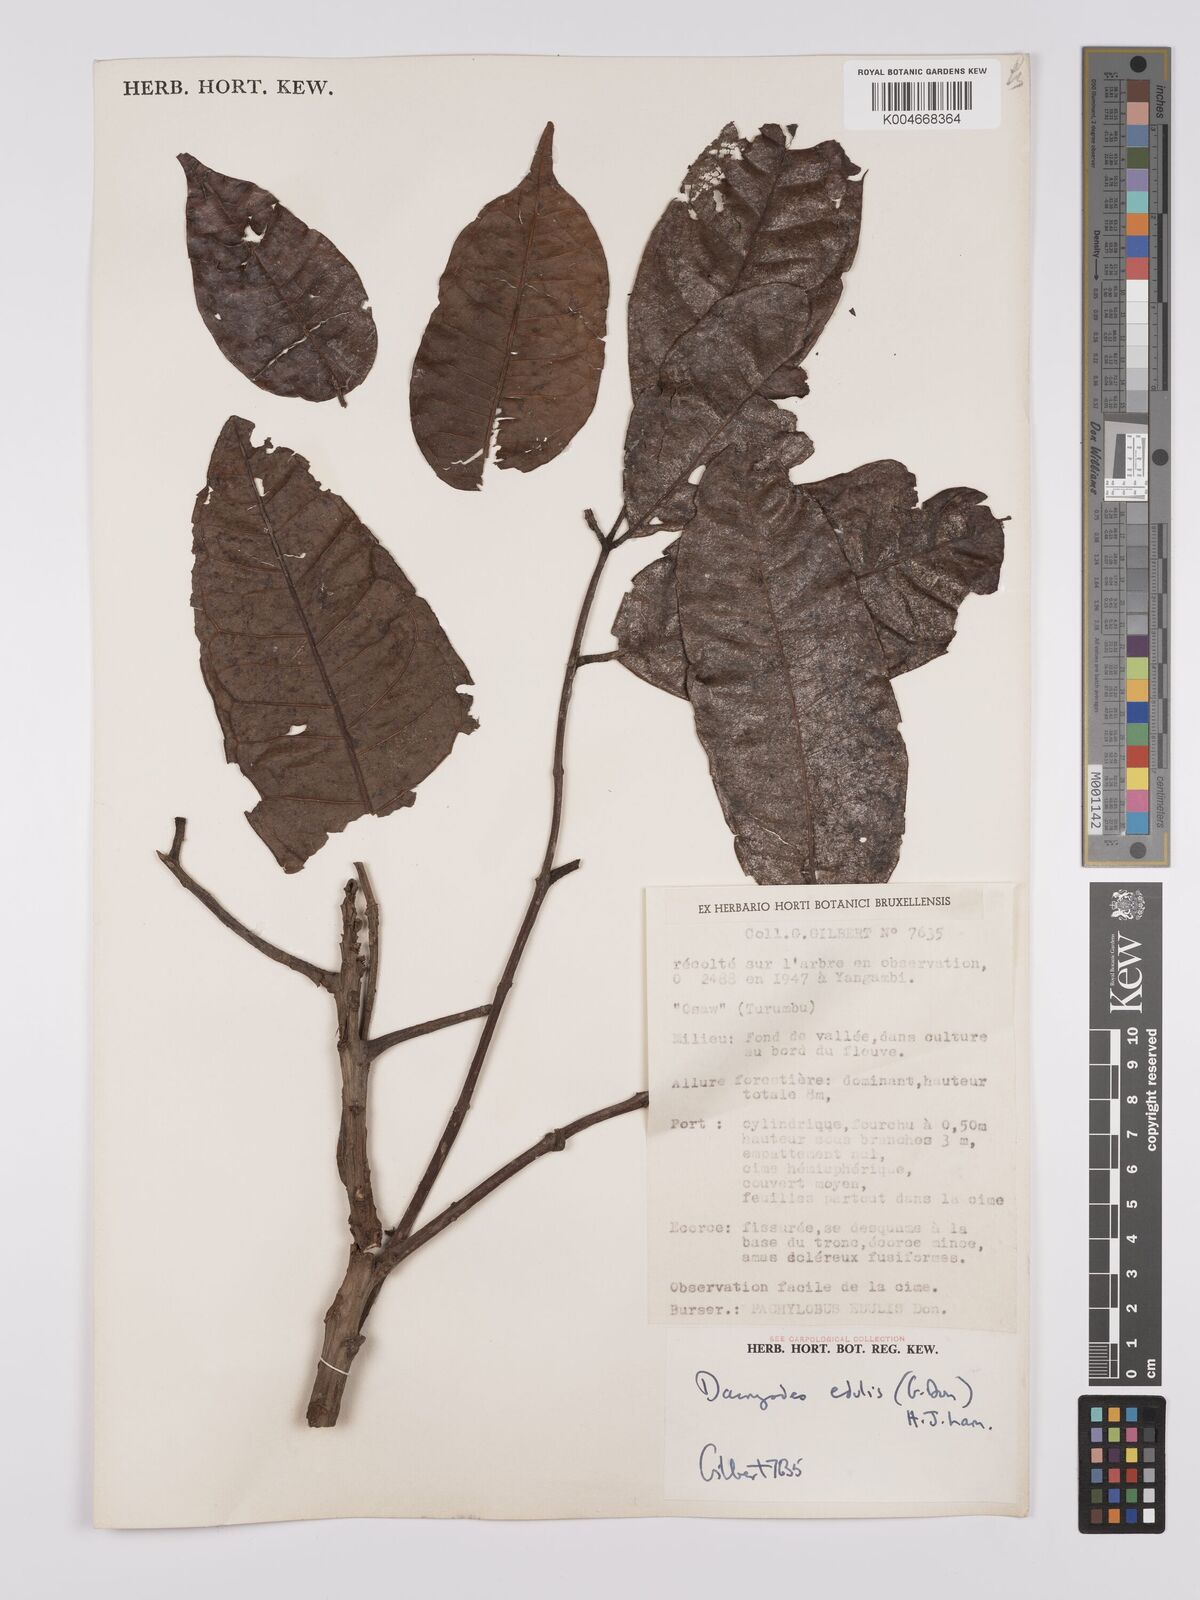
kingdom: Plantae
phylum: Tracheophyta
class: Magnoliopsida
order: Sapindales
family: Burseraceae
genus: Pachylobus
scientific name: Pachylobus edulis
